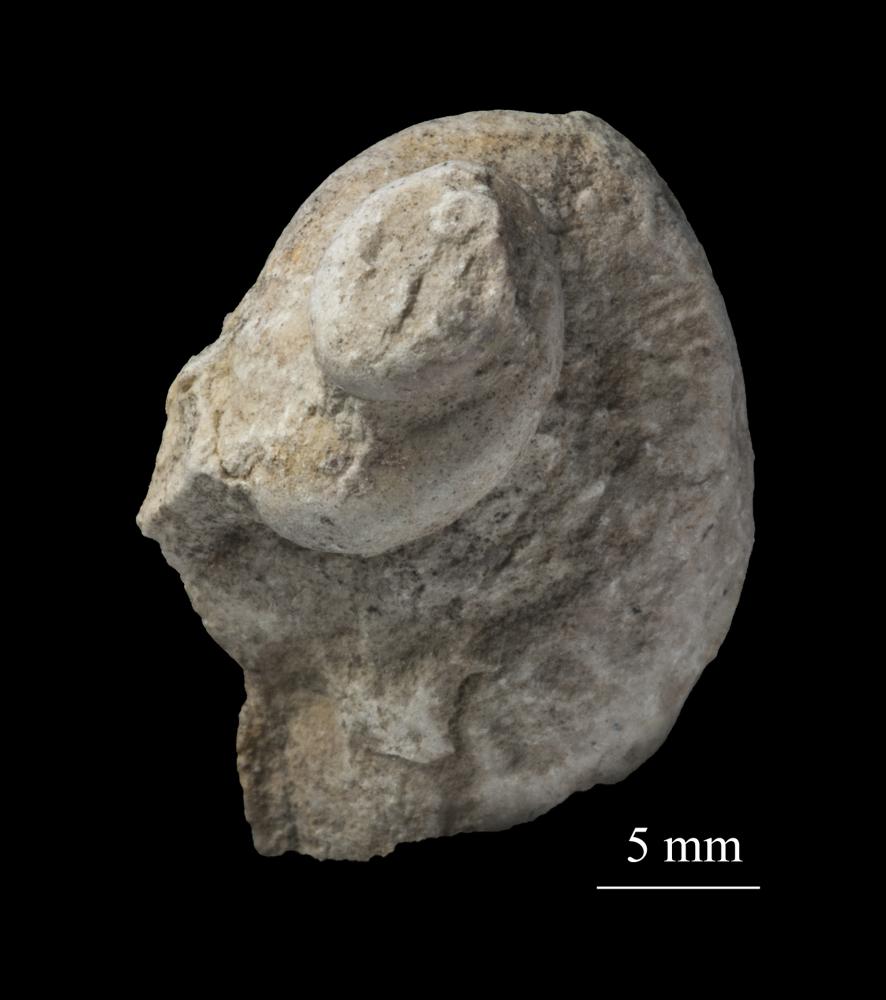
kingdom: Animalia
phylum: Mollusca
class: Gastropoda
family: Lophospiridae
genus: Loxoplocus
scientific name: Loxoplocus Worthenia vermetus
